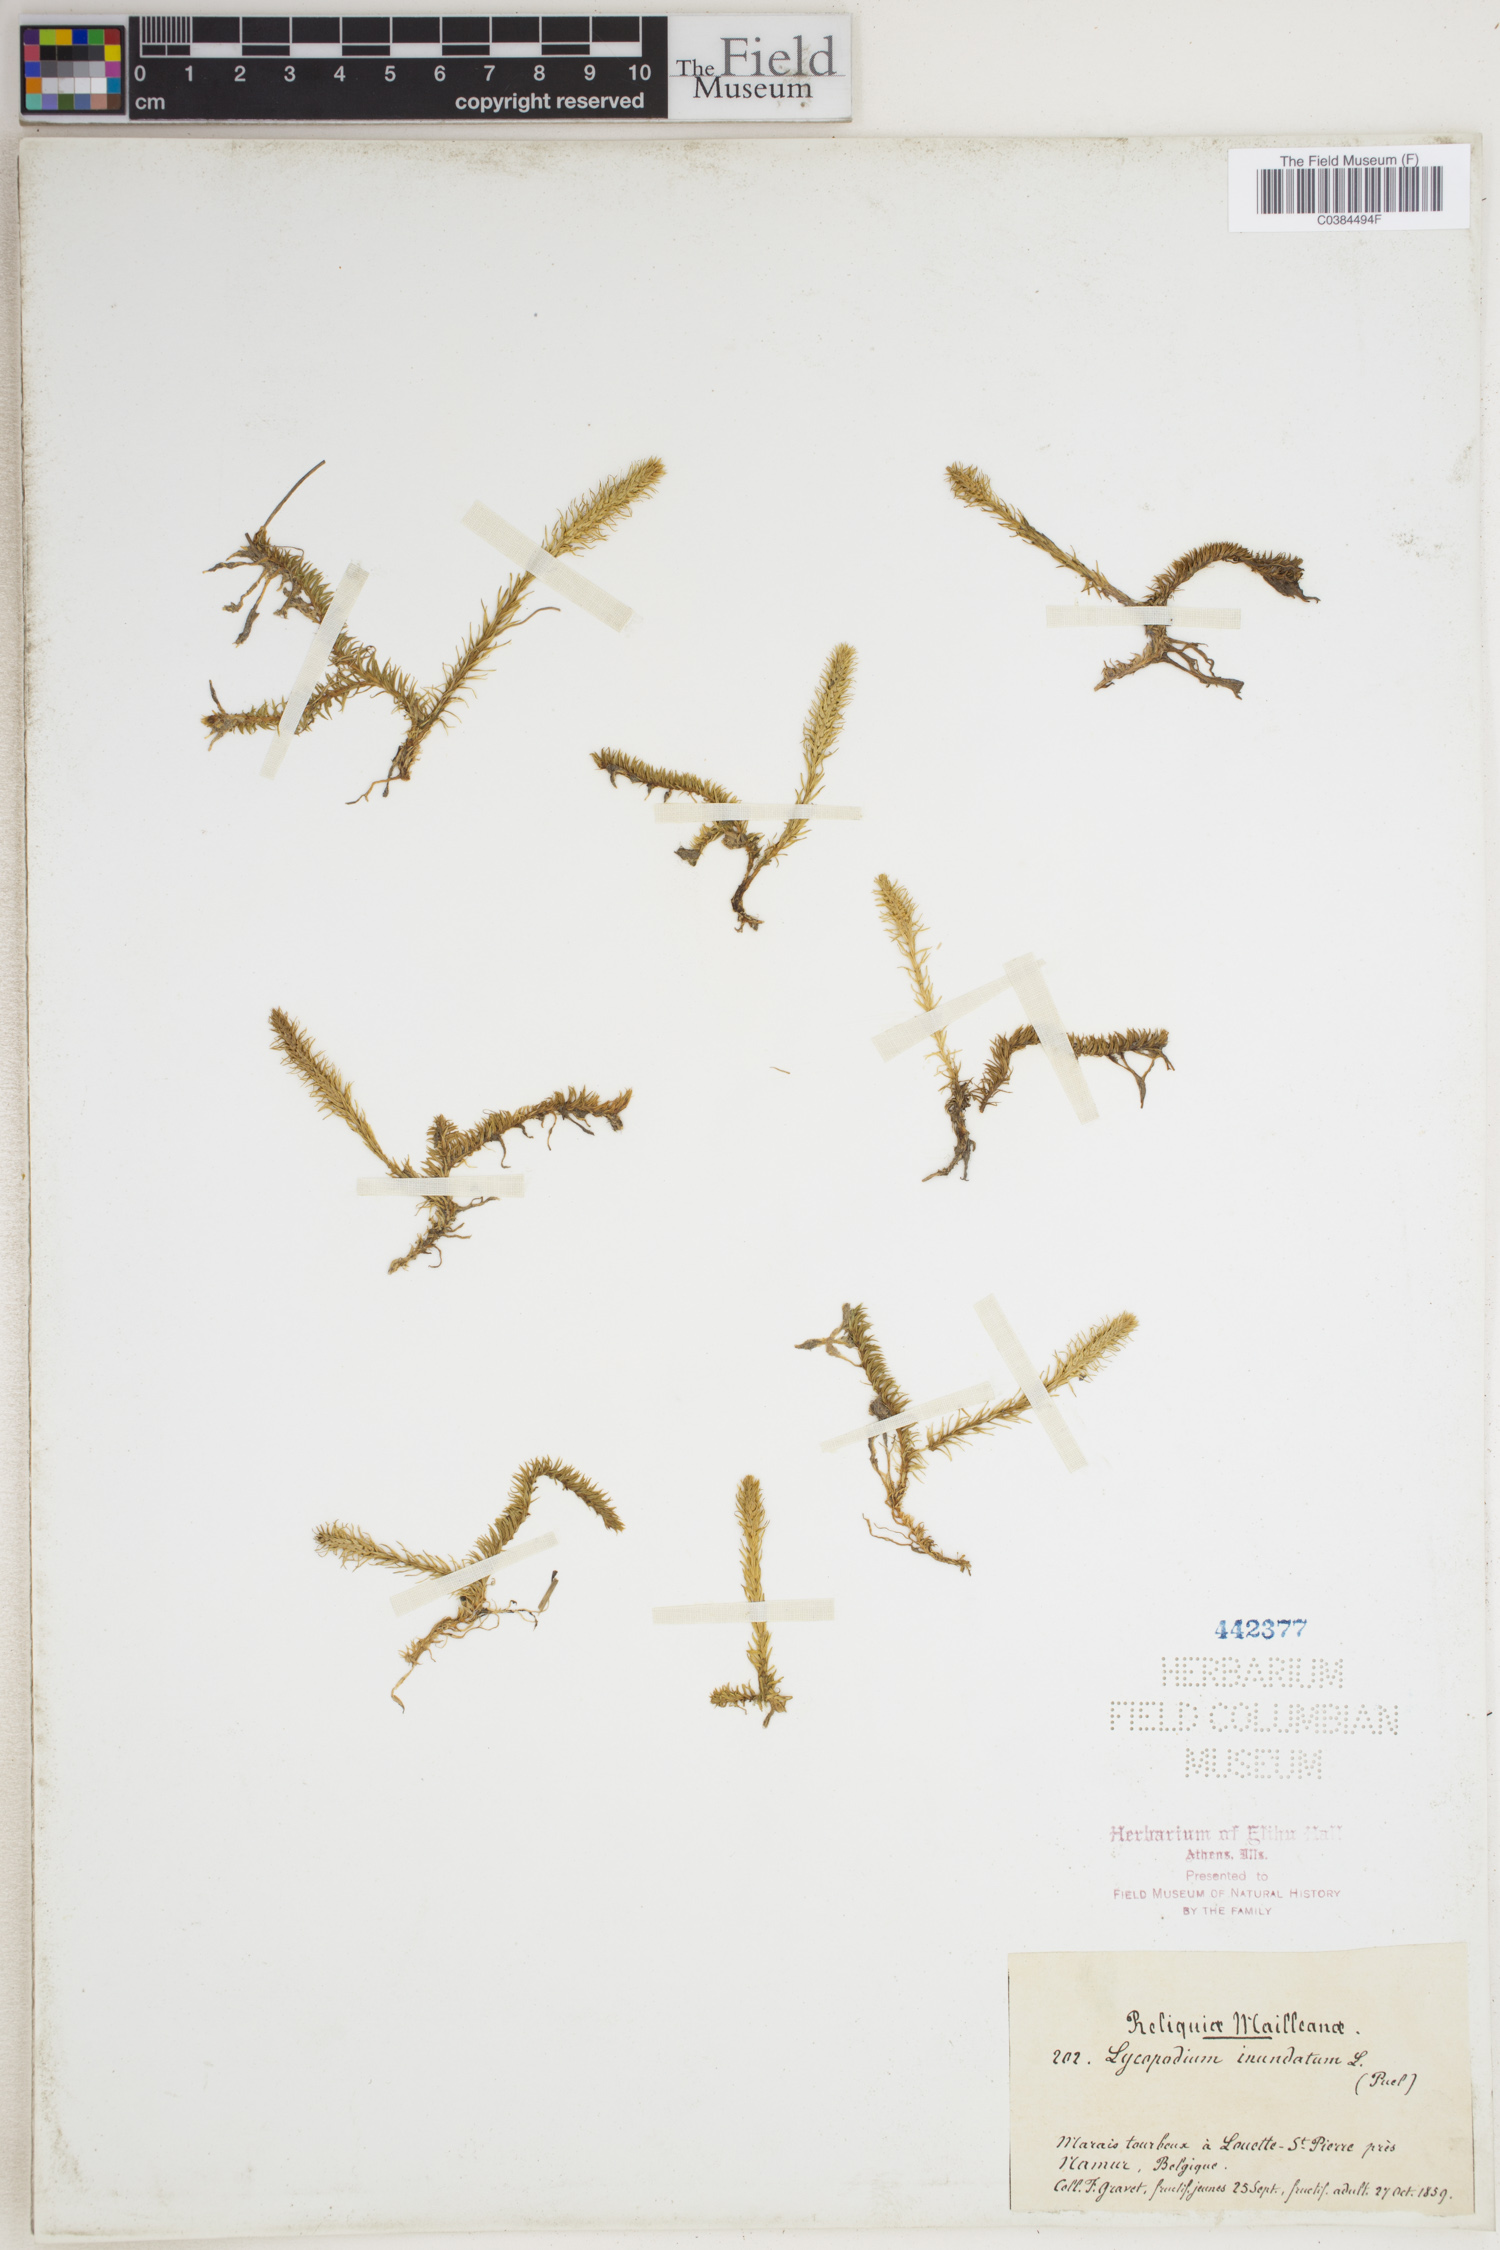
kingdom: Plantae
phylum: Tracheophyta
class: Lycopodiopsida
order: Lycopodiales
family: Lycopodiaceae
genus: Lycopodiella
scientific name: Lycopodiella inundata
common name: Marsh clubmoss
